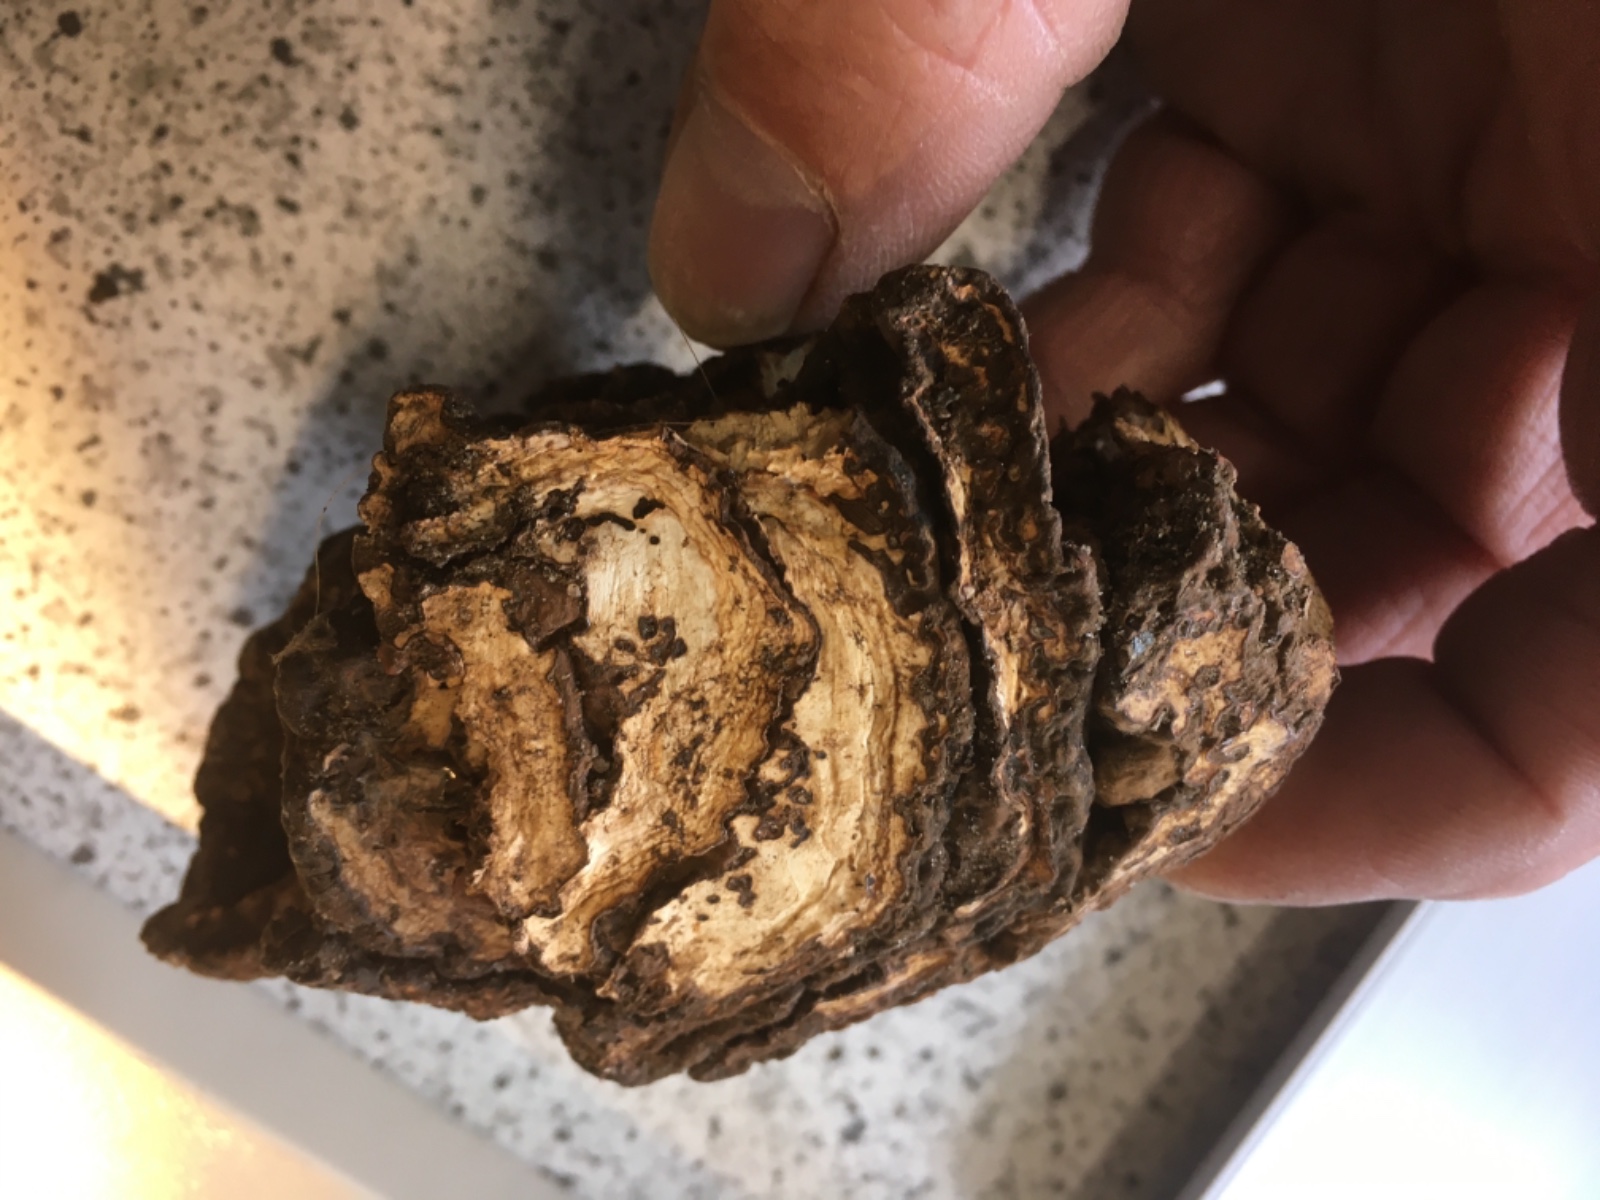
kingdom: Fungi
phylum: Basidiomycota
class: Agaricomycetes
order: Polyporales
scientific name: Polyporales
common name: poresvampordenen
